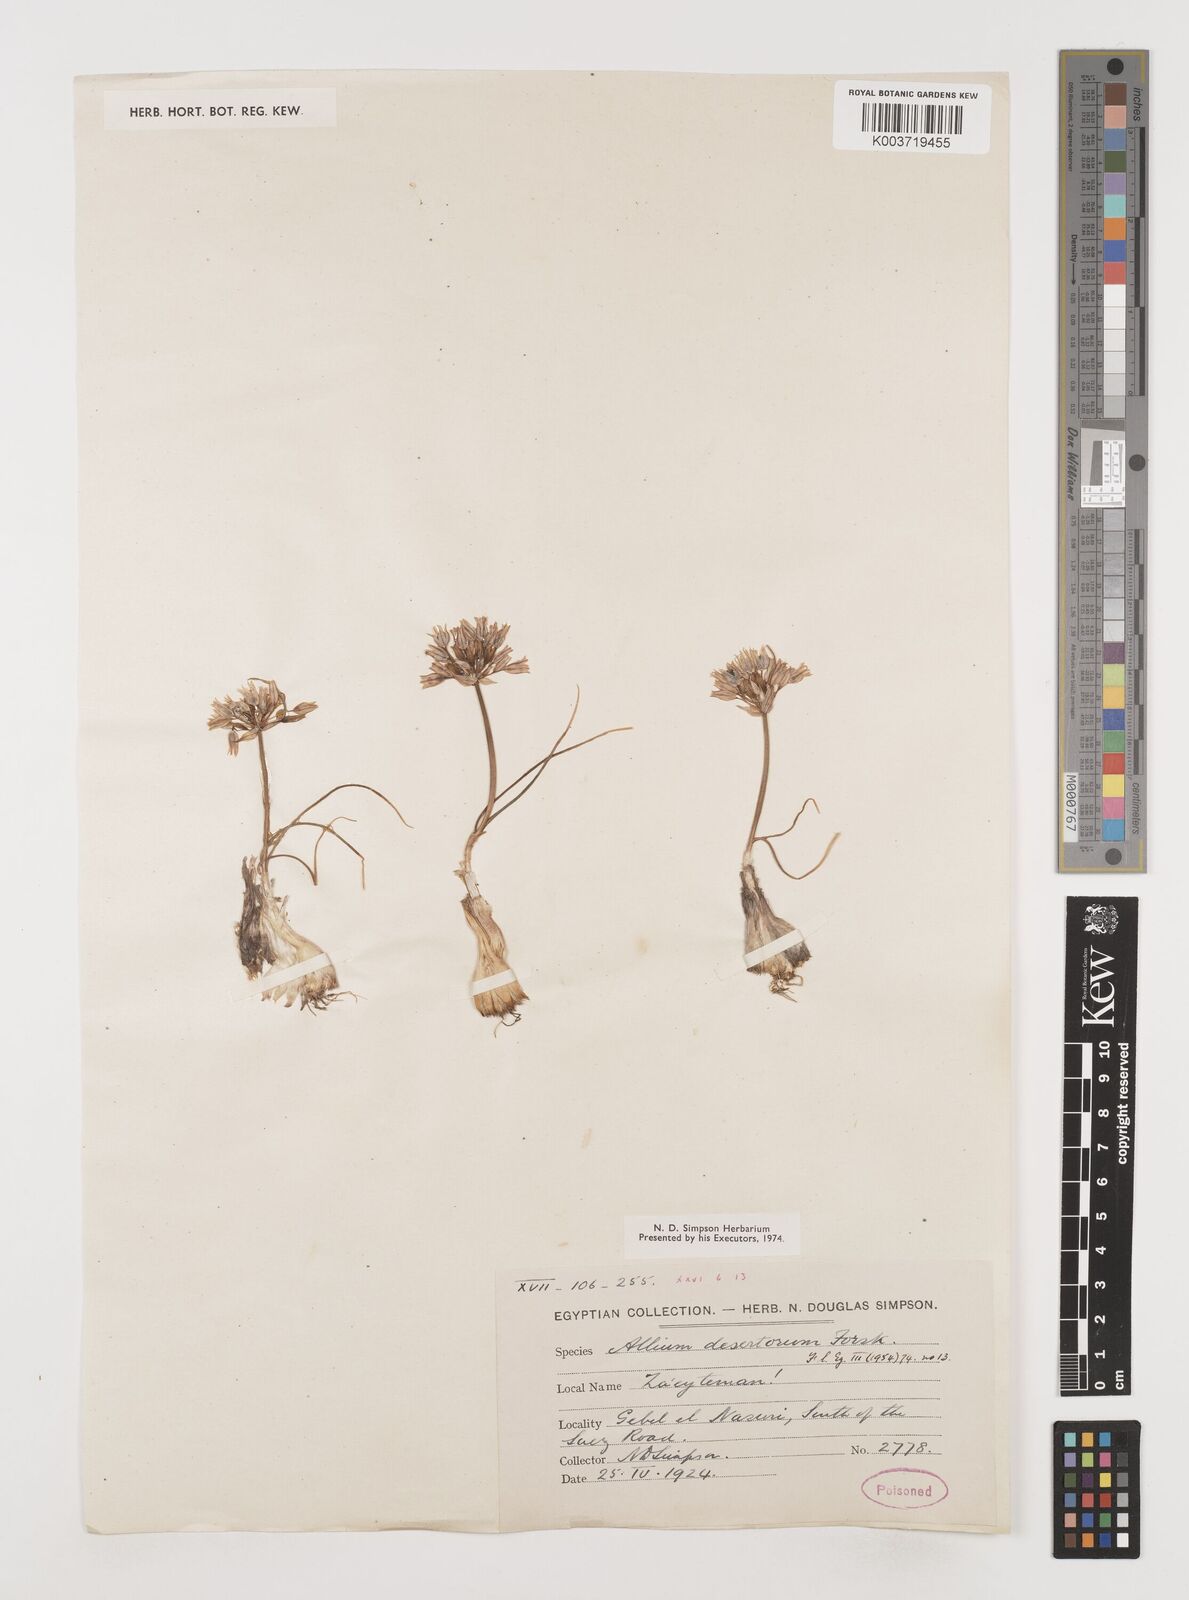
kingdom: Plantae
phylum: Tracheophyta
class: Liliopsida
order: Asparagales
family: Amaryllidaceae
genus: Allium
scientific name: Allium desertorum
